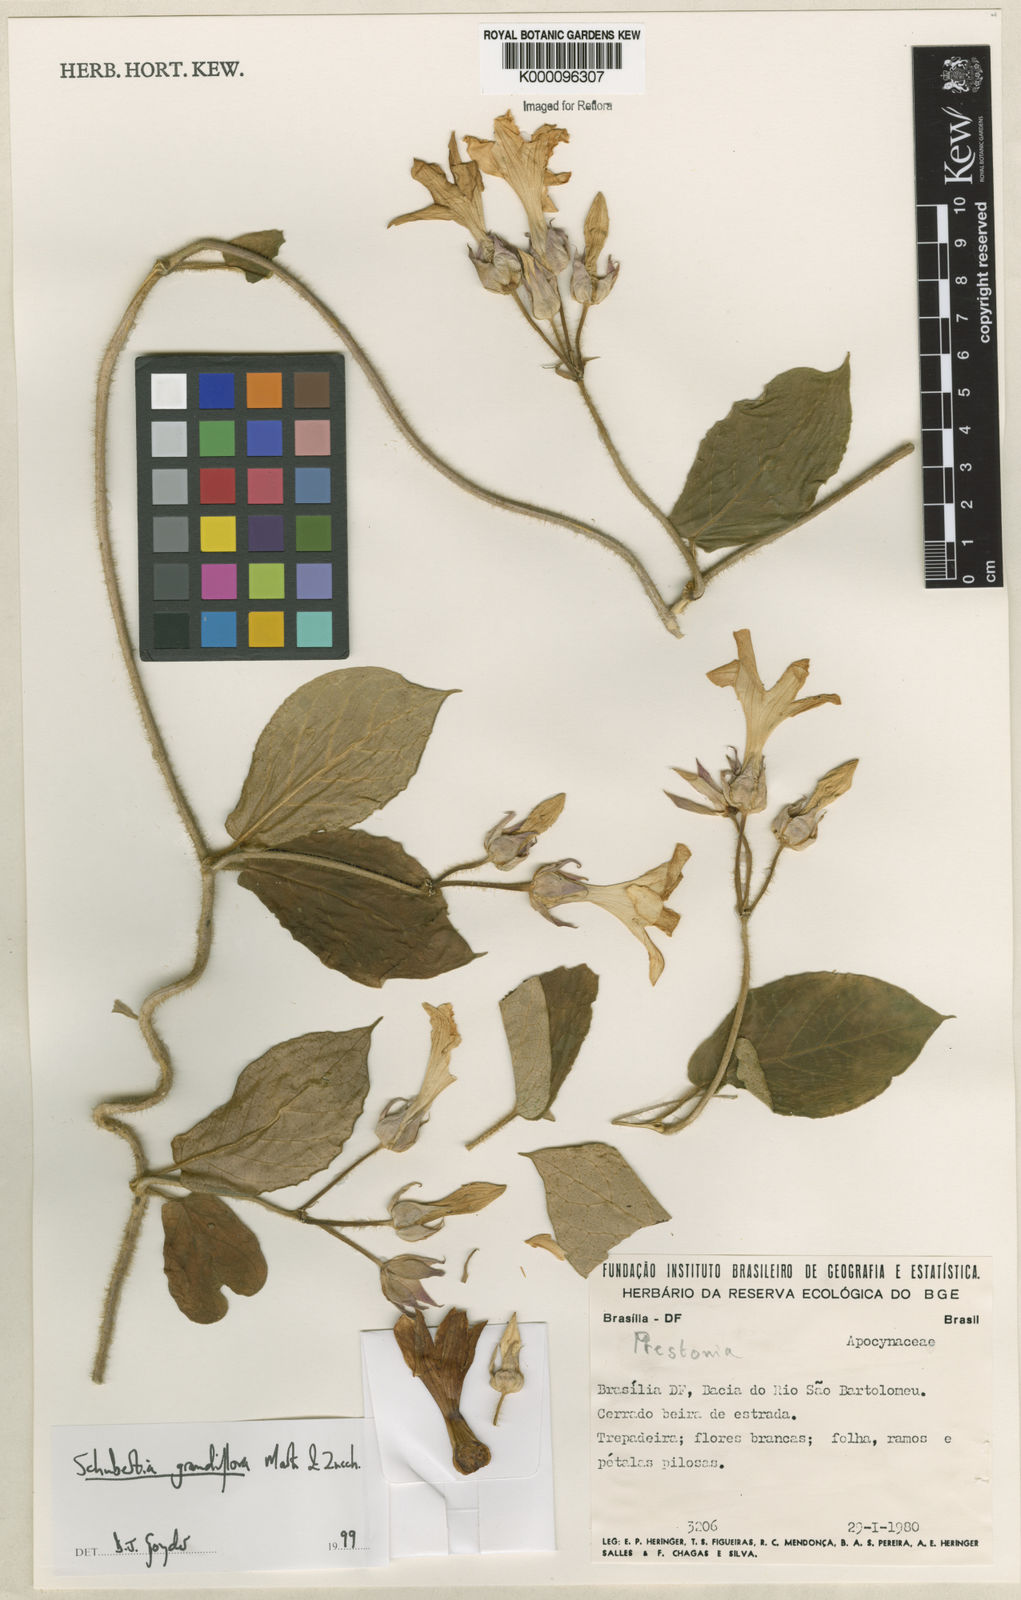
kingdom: Plantae
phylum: Tracheophyta
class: Magnoliopsida
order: Gentianales
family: Apocynaceae
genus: Macroscepis
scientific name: Macroscepis grandiflora
